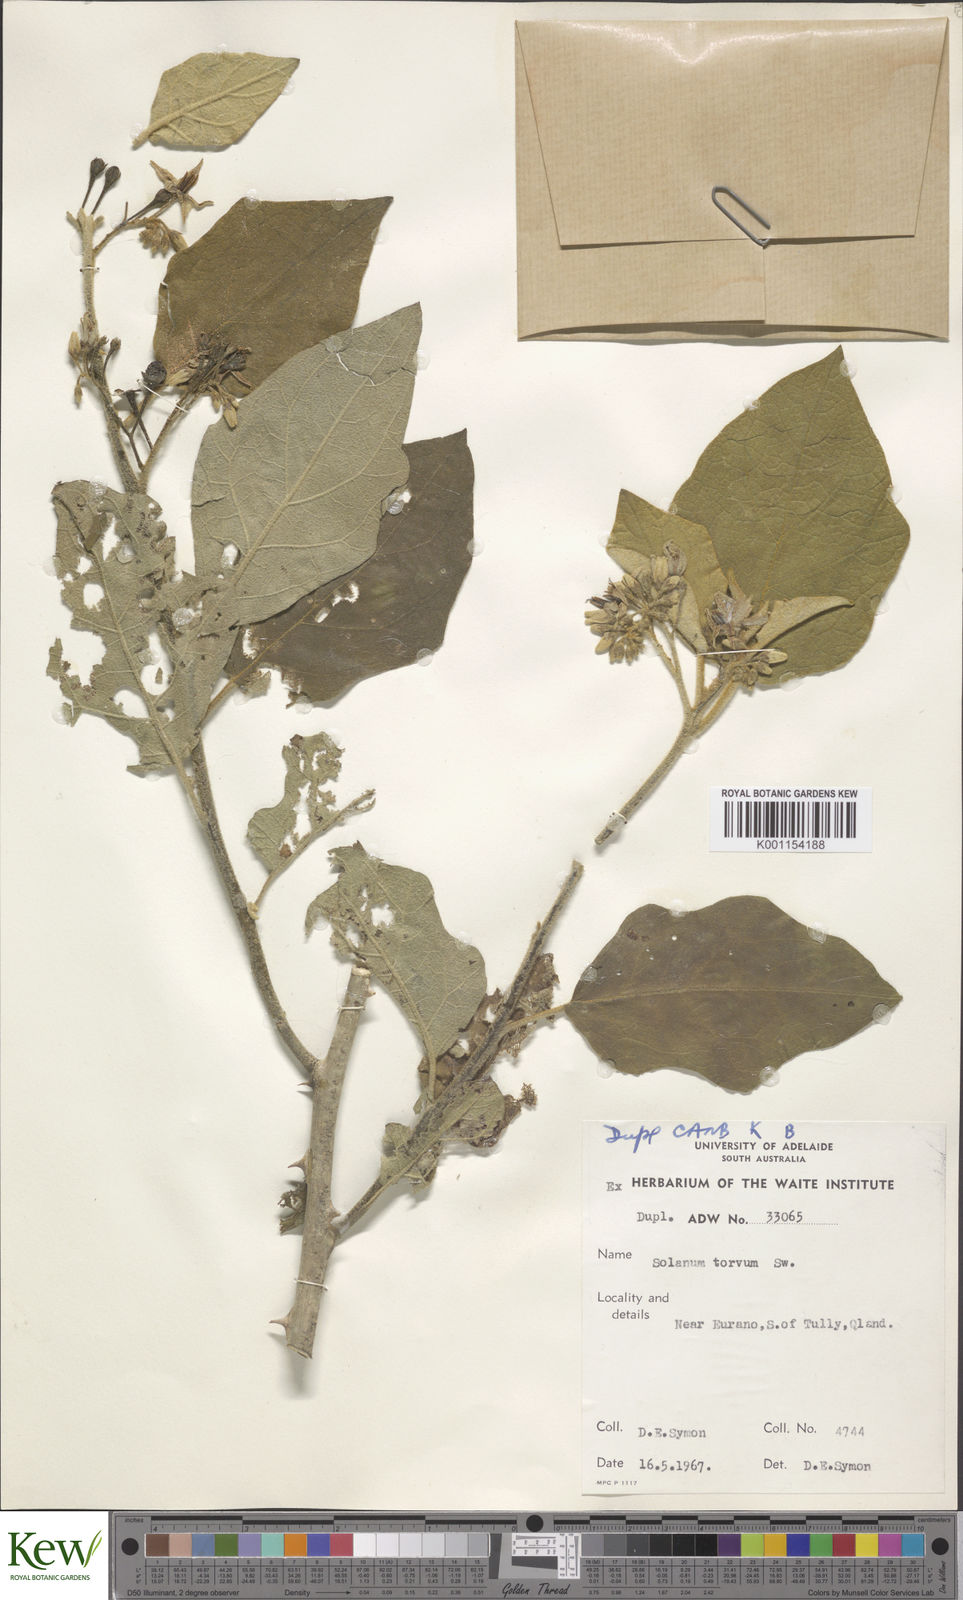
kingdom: Plantae
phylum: Tracheophyta
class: Magnoliopsida
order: Solanales
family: Solanaceae
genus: Solanum
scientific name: Solanum torvum
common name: Turkey berry
